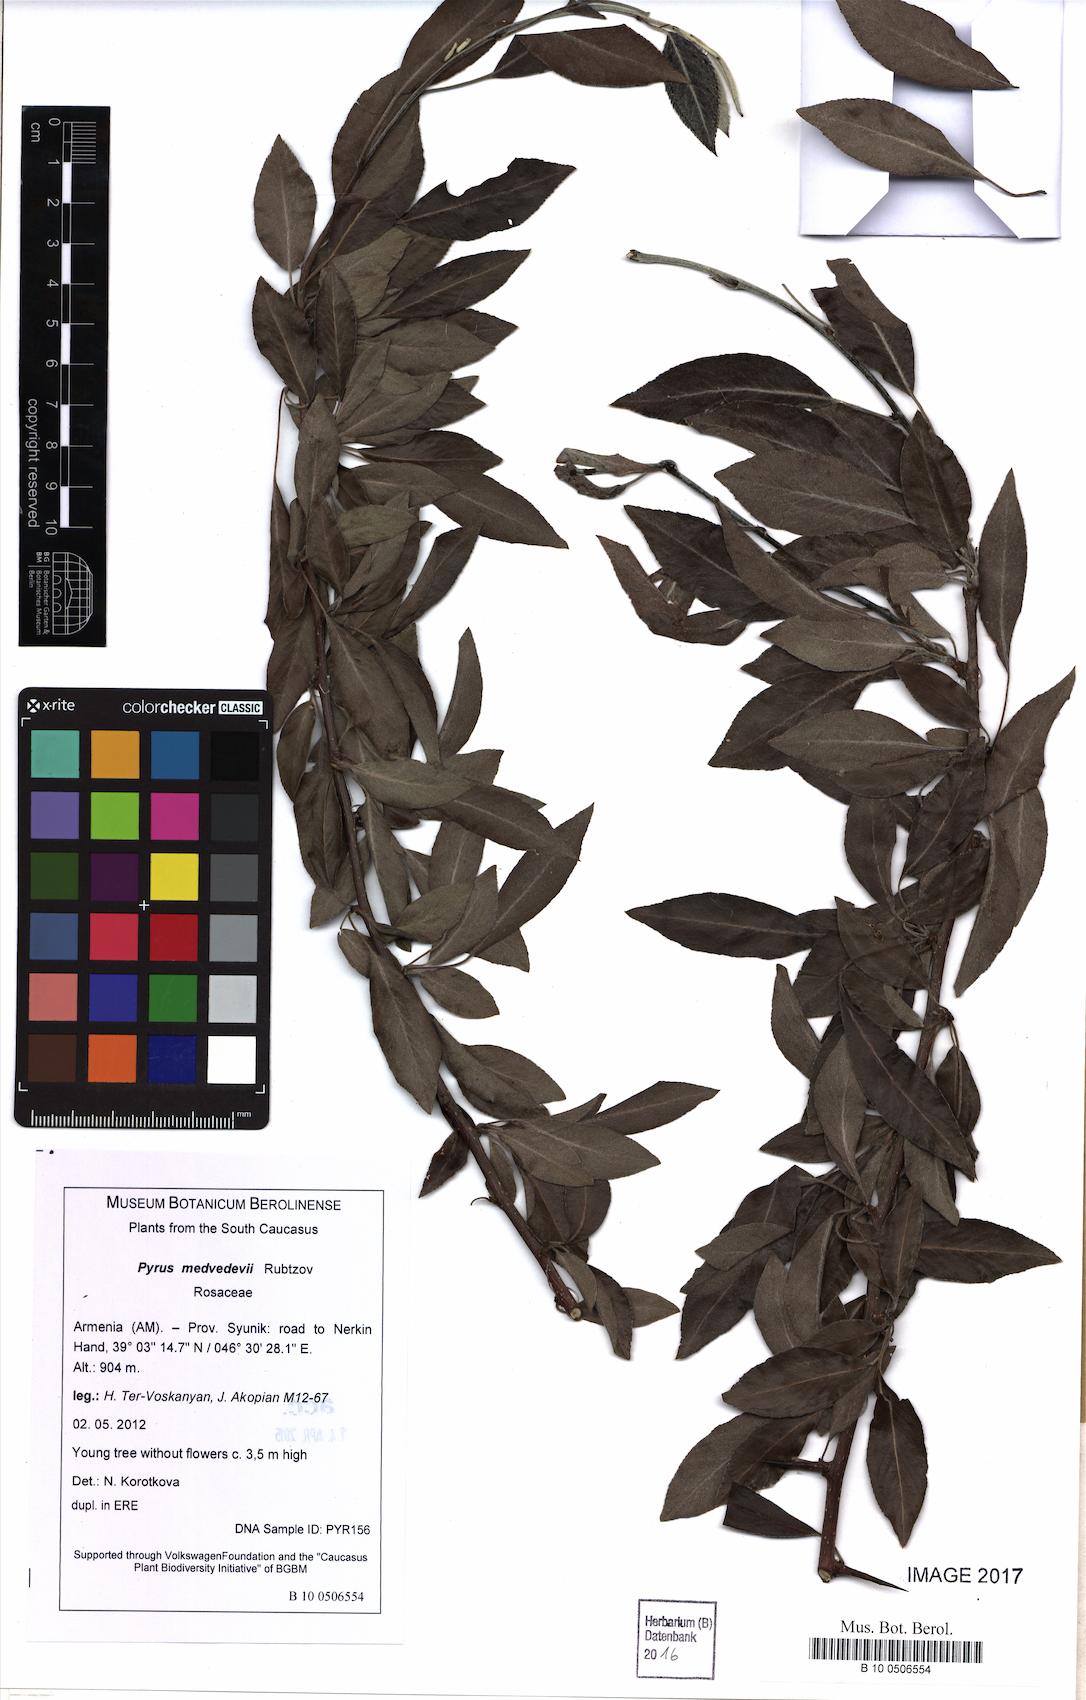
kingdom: Plantae
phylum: Tracheophyta
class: Magnoliopsida
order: Rosales
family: Rosaceae
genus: Pyrus
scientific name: Pyrus medvedevii
